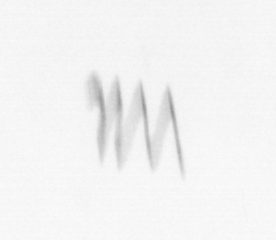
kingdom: Chromista
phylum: Ochrophyta
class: Bacillariophyceae
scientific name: Bacillariophyceae
